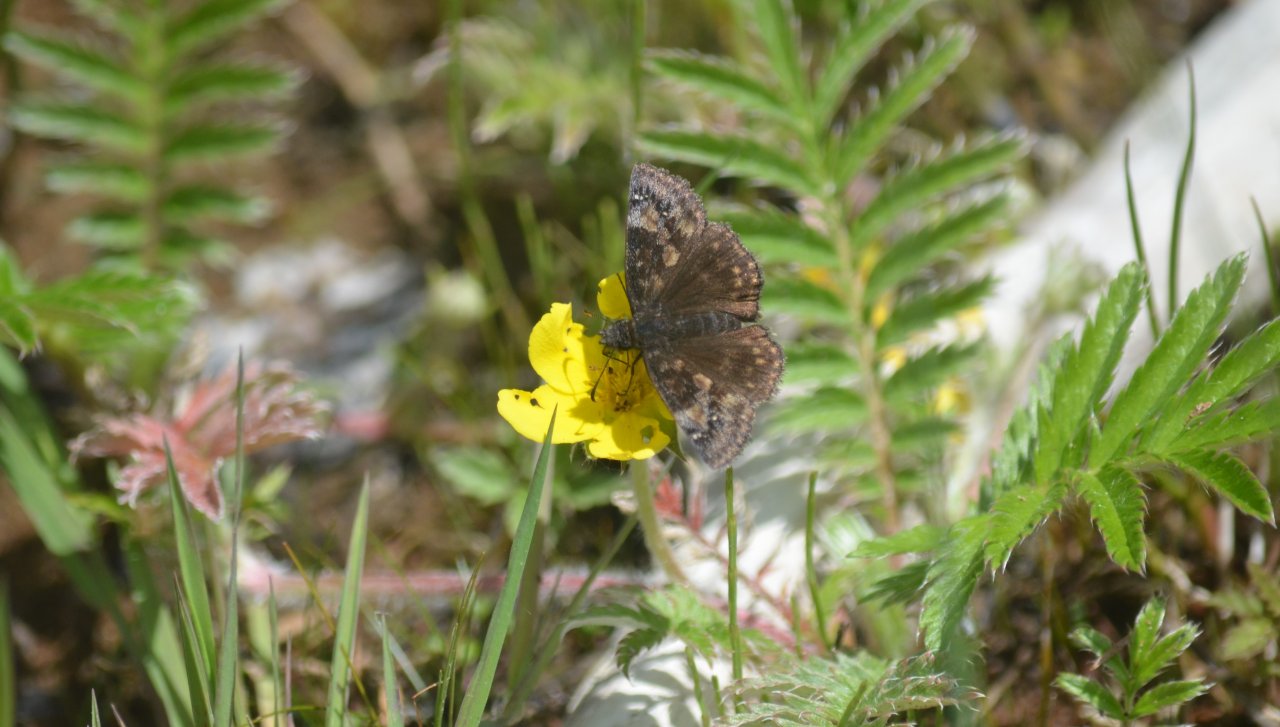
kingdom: Animalia
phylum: Arthropoda
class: Insecta
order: Lepidoptera
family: Hesperiidae
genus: Gesta
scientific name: Gesta
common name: Wild Indigo Duskywing
